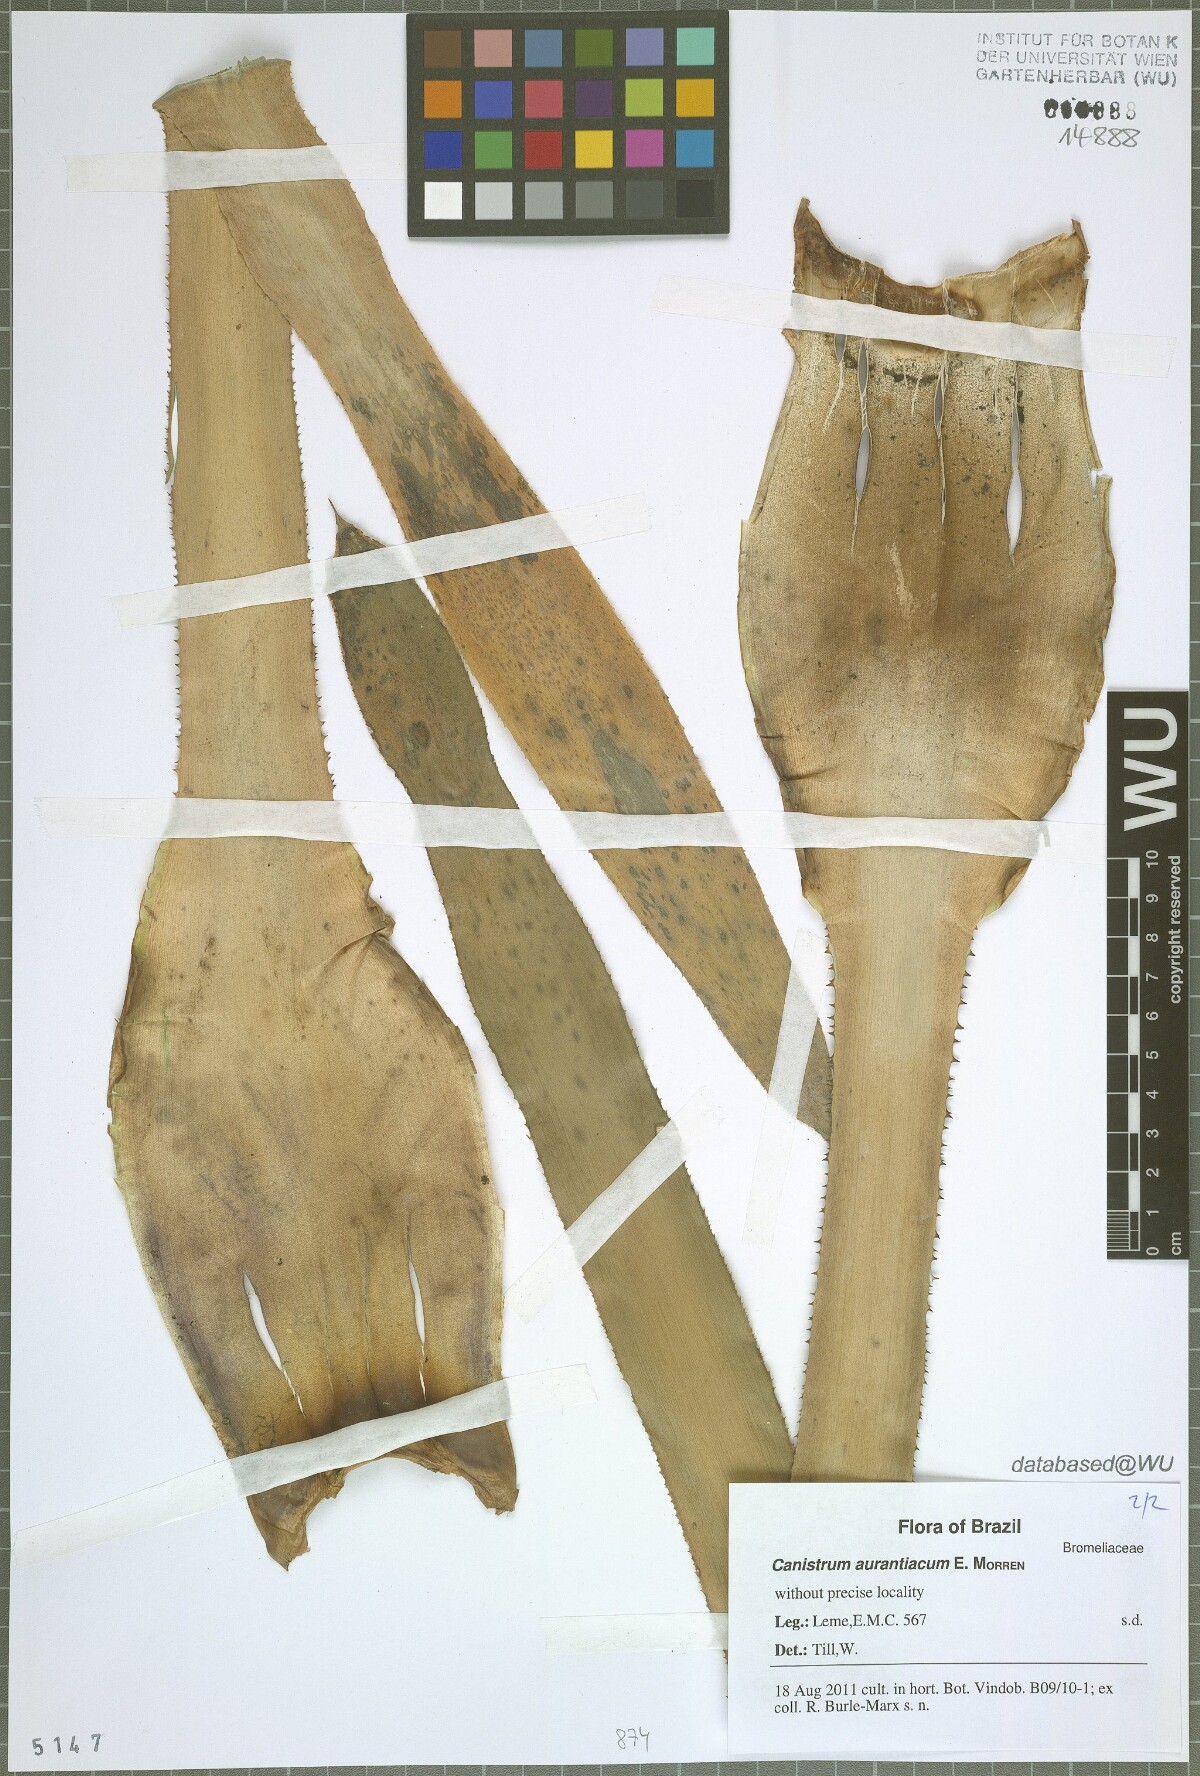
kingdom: Plantae
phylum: Tracheophyta
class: Liliopsida
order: Poales
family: Bromeliaceae
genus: Canistrum
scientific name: Canistrum aurantiacum
